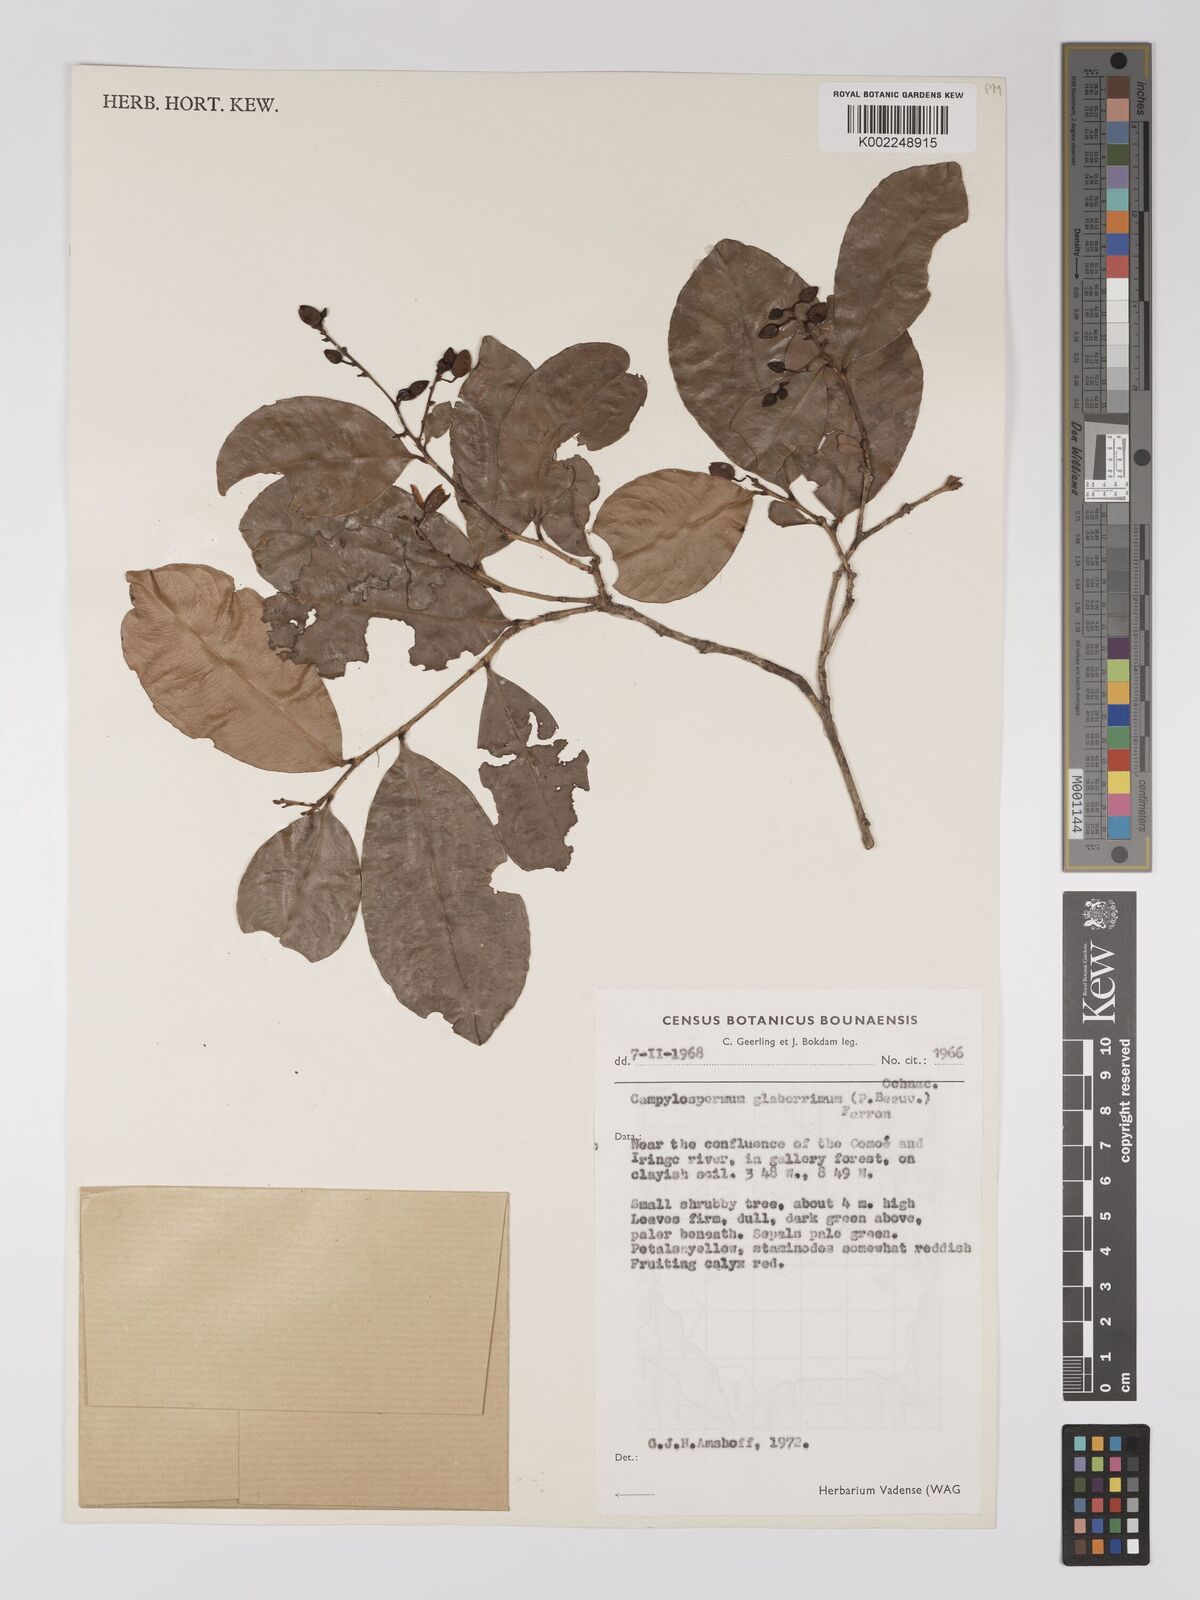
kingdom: Plantae
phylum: Tracheophyta
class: Magnoliopsida
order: Malpighiales
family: Ochnaceae
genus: Campylospermum
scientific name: Campylospermum glaberrimum
